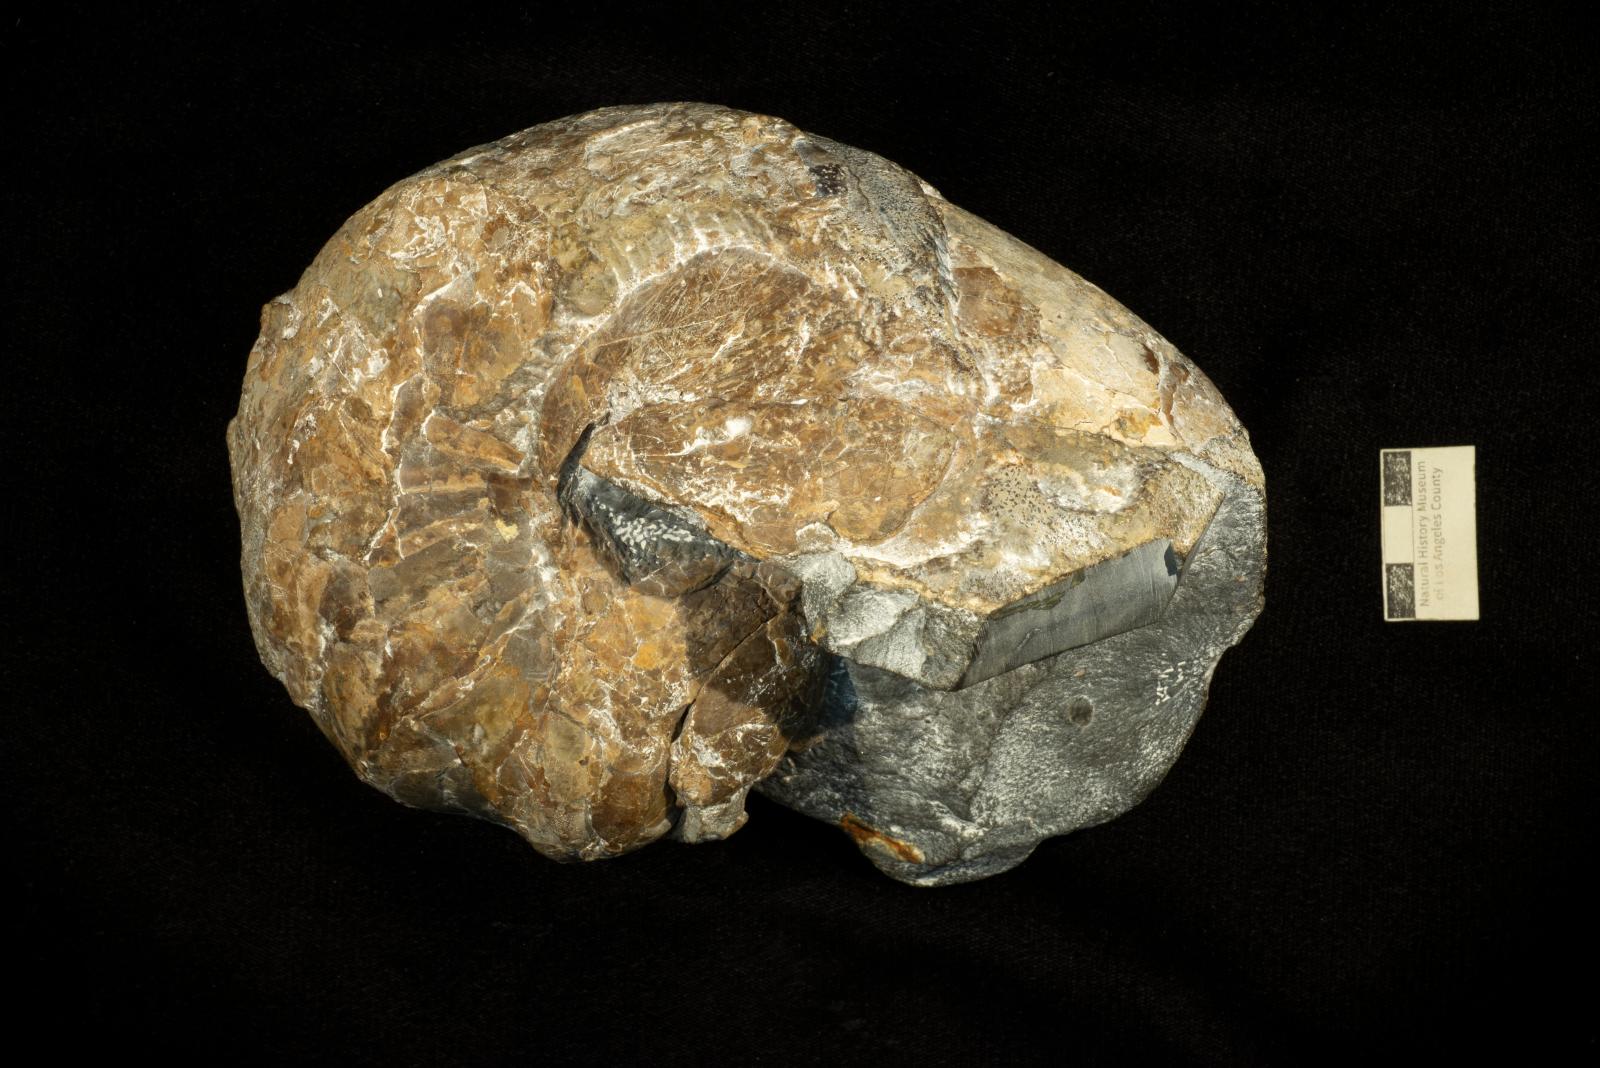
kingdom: Animalia
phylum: Mollusca
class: Cephalopoda
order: Nautilida
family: Nautilidae
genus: Eutrephoceras
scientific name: Eutrephoceras
